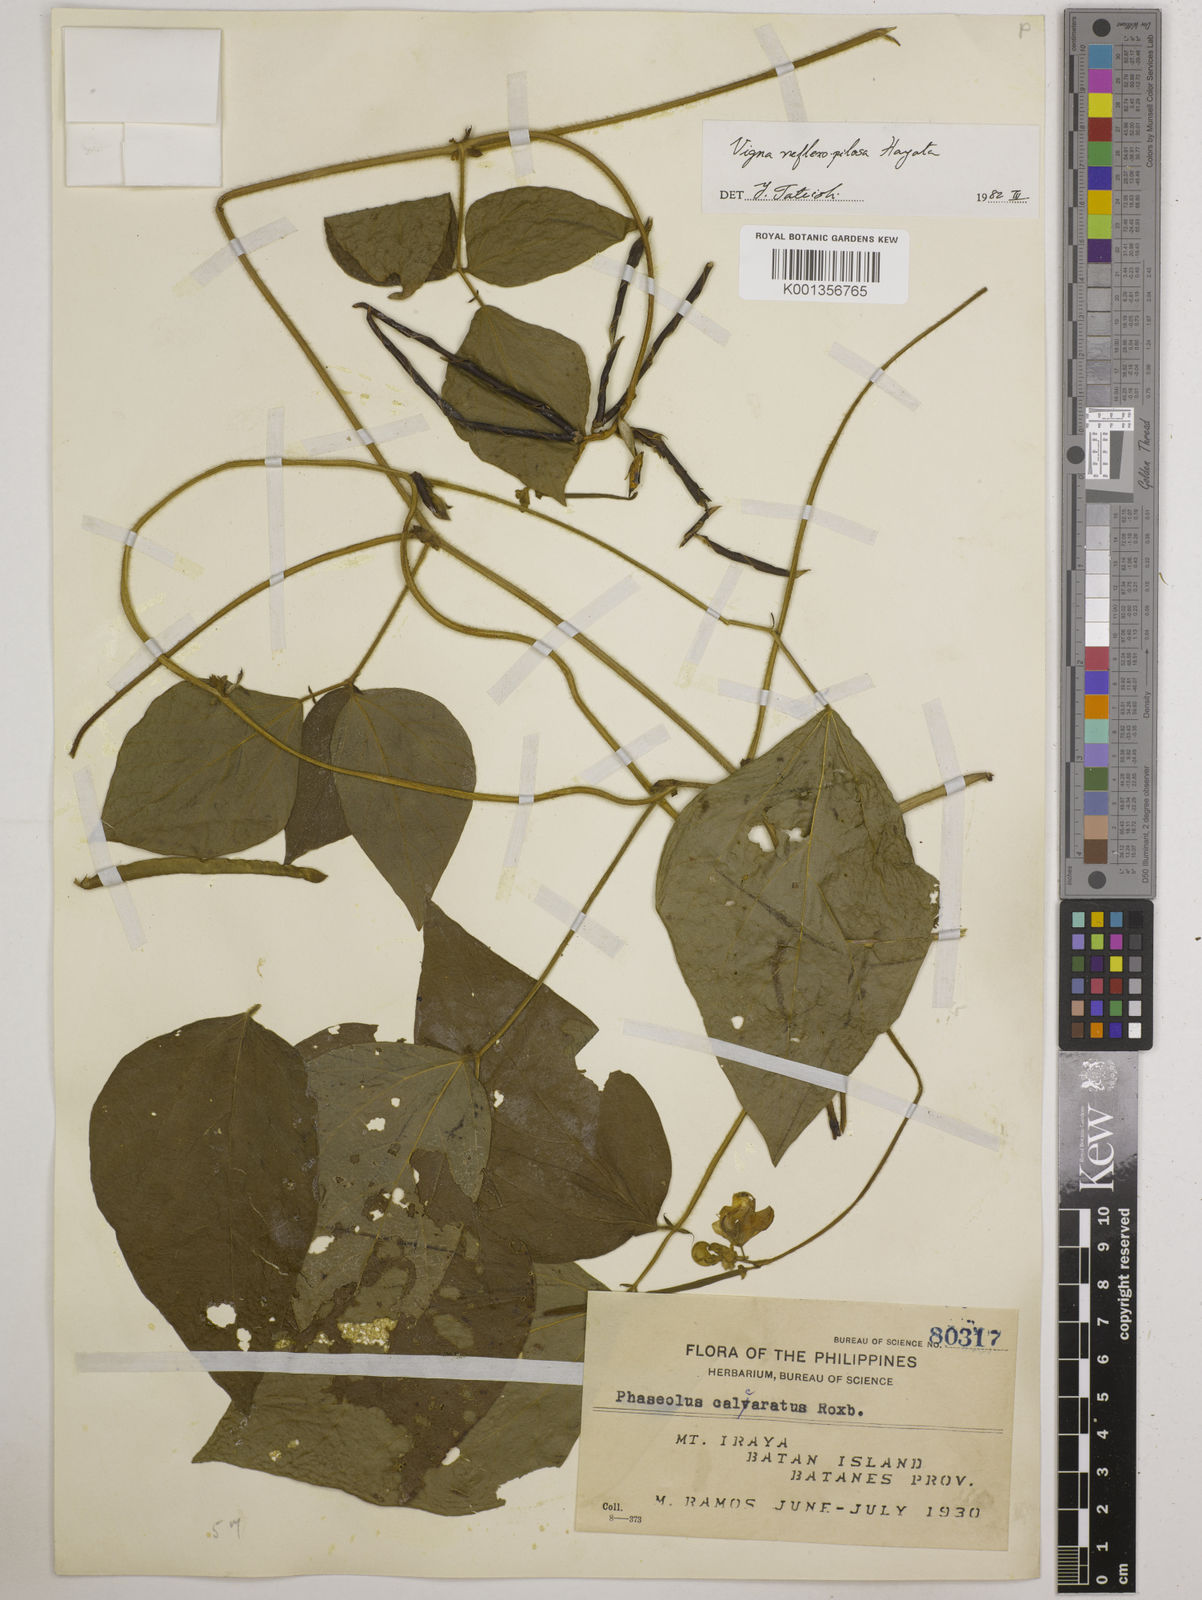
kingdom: Plantae
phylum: Tracheophyta
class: Magnoliopsida
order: Fabales
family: Fabaceae
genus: Vigna
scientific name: Vigna reflexopilosa
